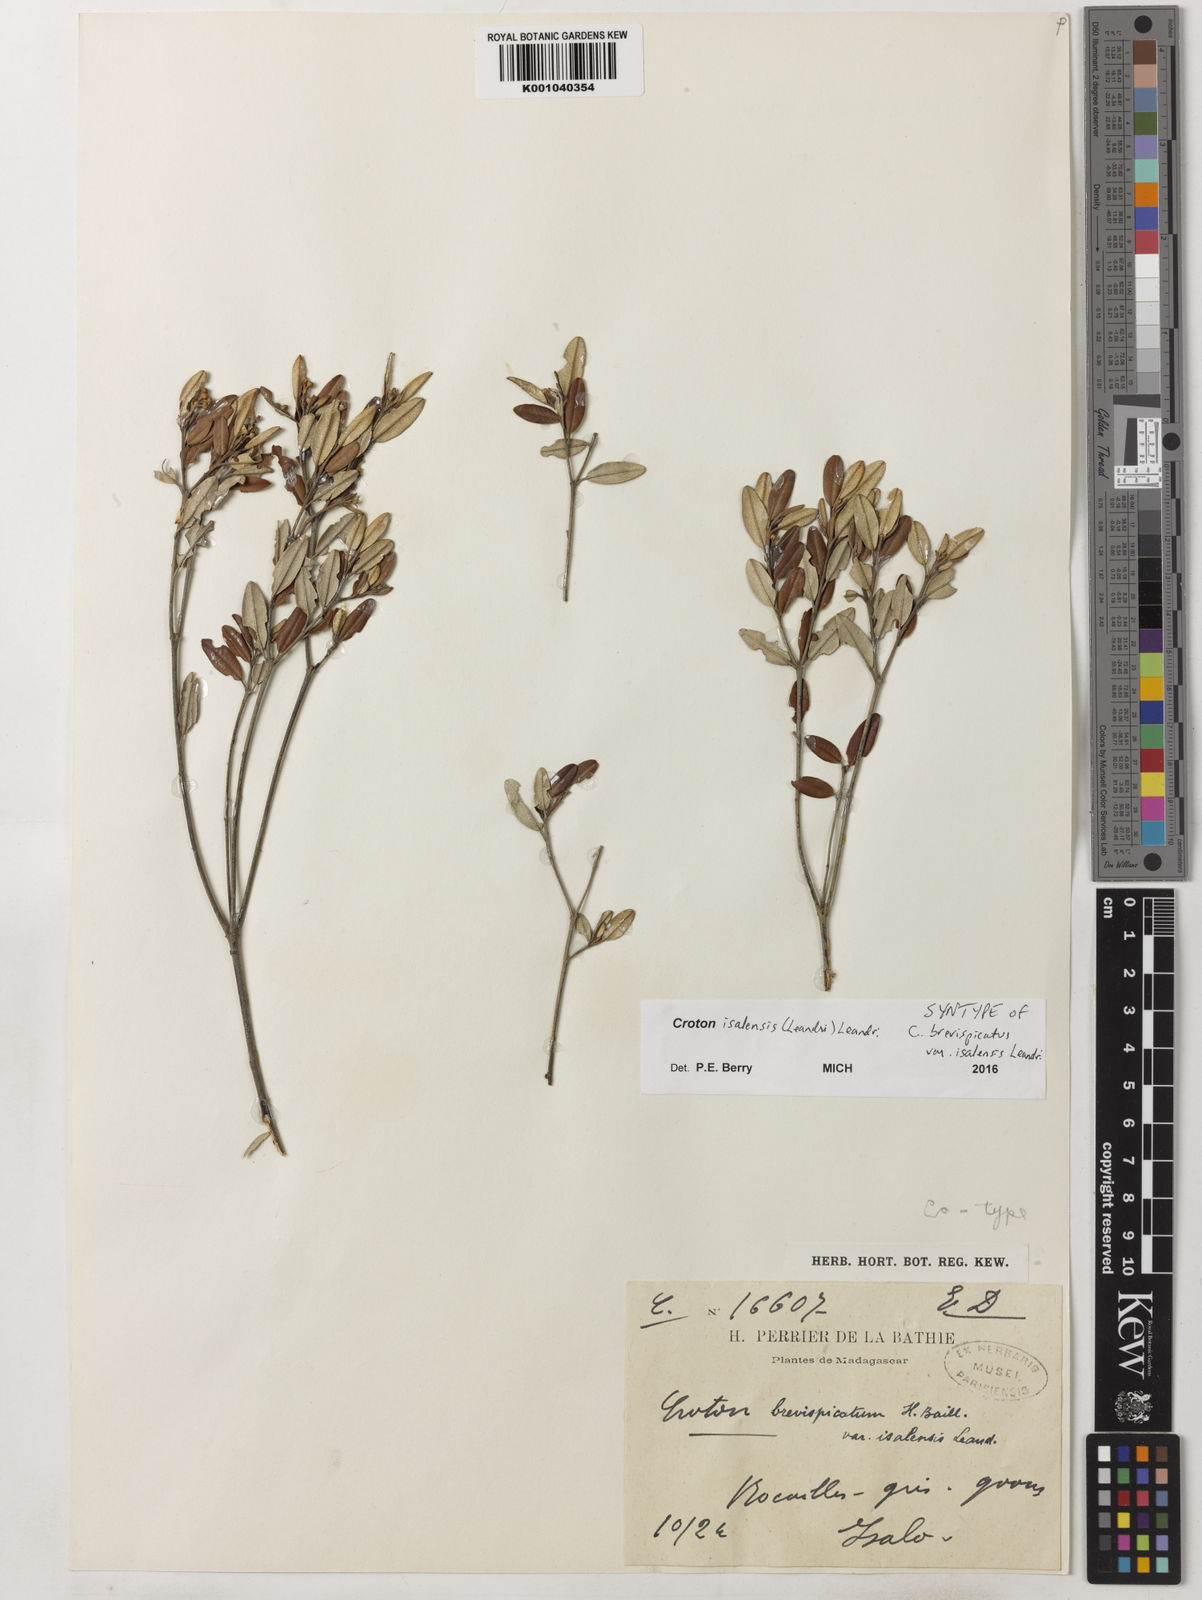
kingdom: Plantae
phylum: Tracheophyta
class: Magnoliopsida
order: Malpighiales
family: Euphorbiaceae
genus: Croton
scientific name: Croton isalensis
